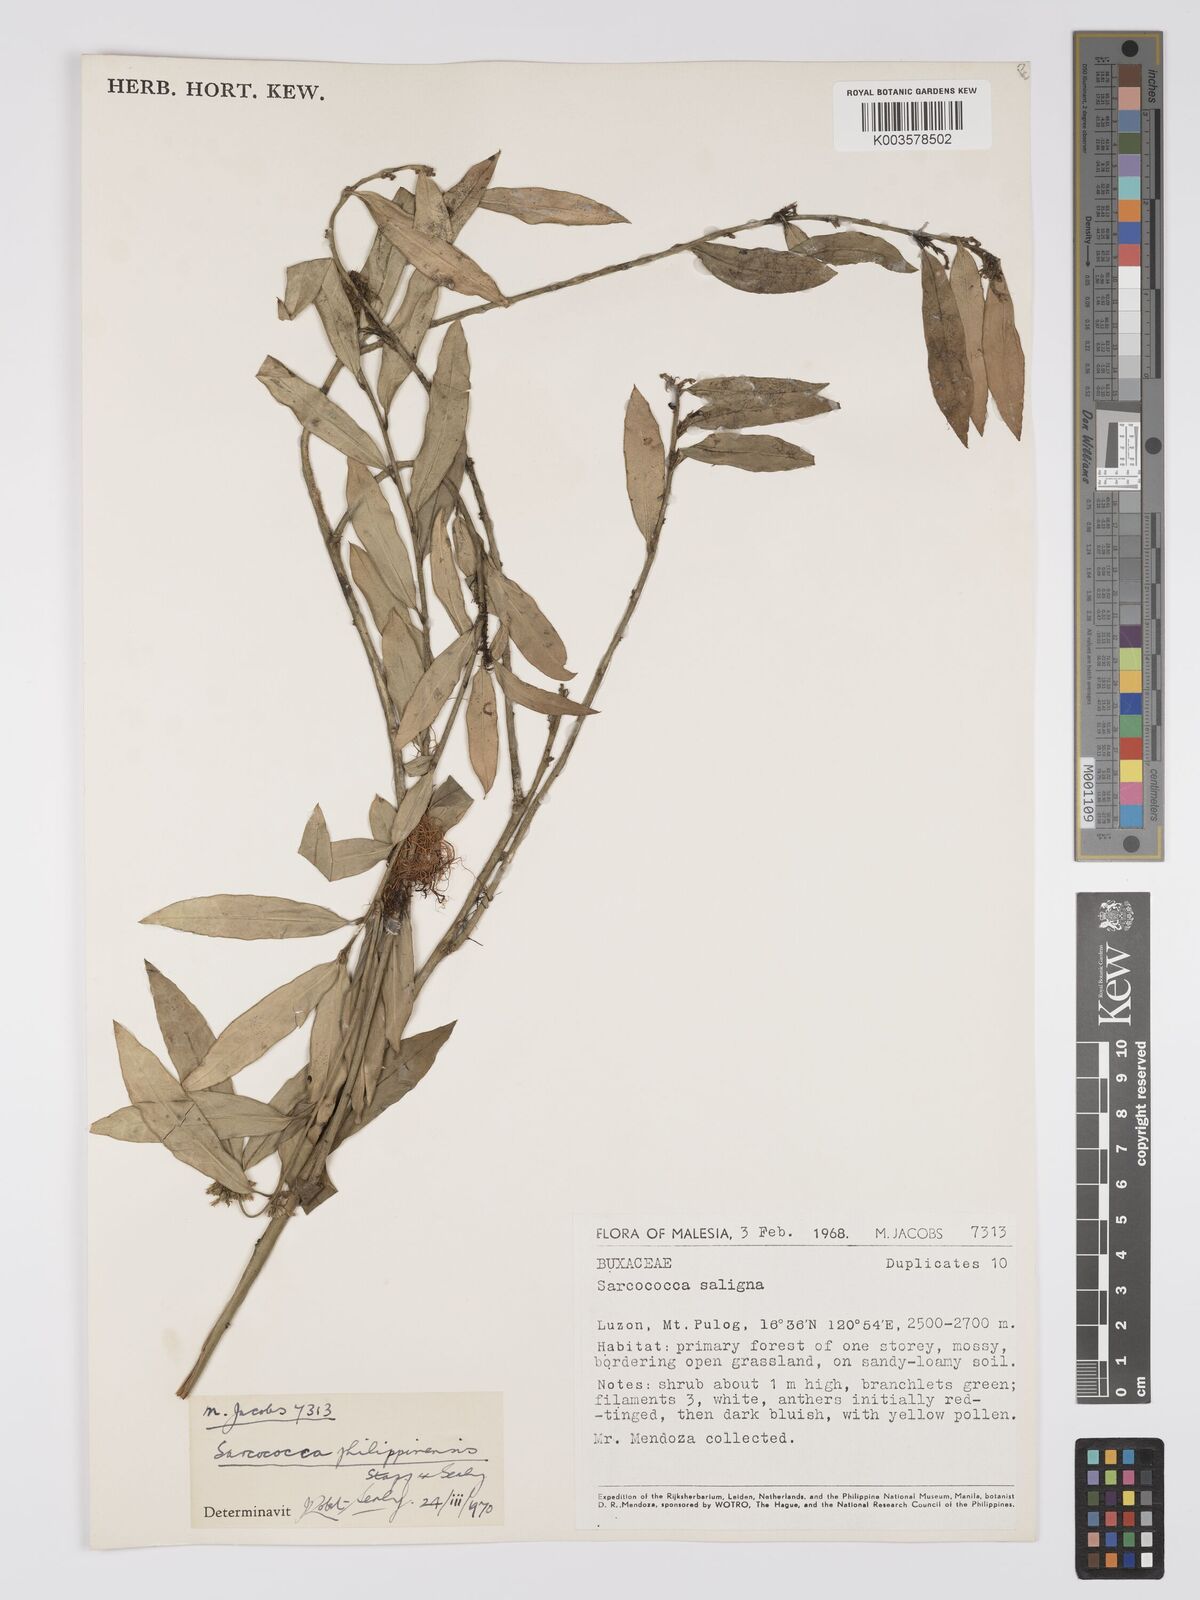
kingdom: Plantae
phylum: Tracheophyta
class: Magnoliopsida
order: Buxales
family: Buxaceae
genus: Sarcococca
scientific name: Sarcococca saligna
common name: Willow-leaf sweet-box
